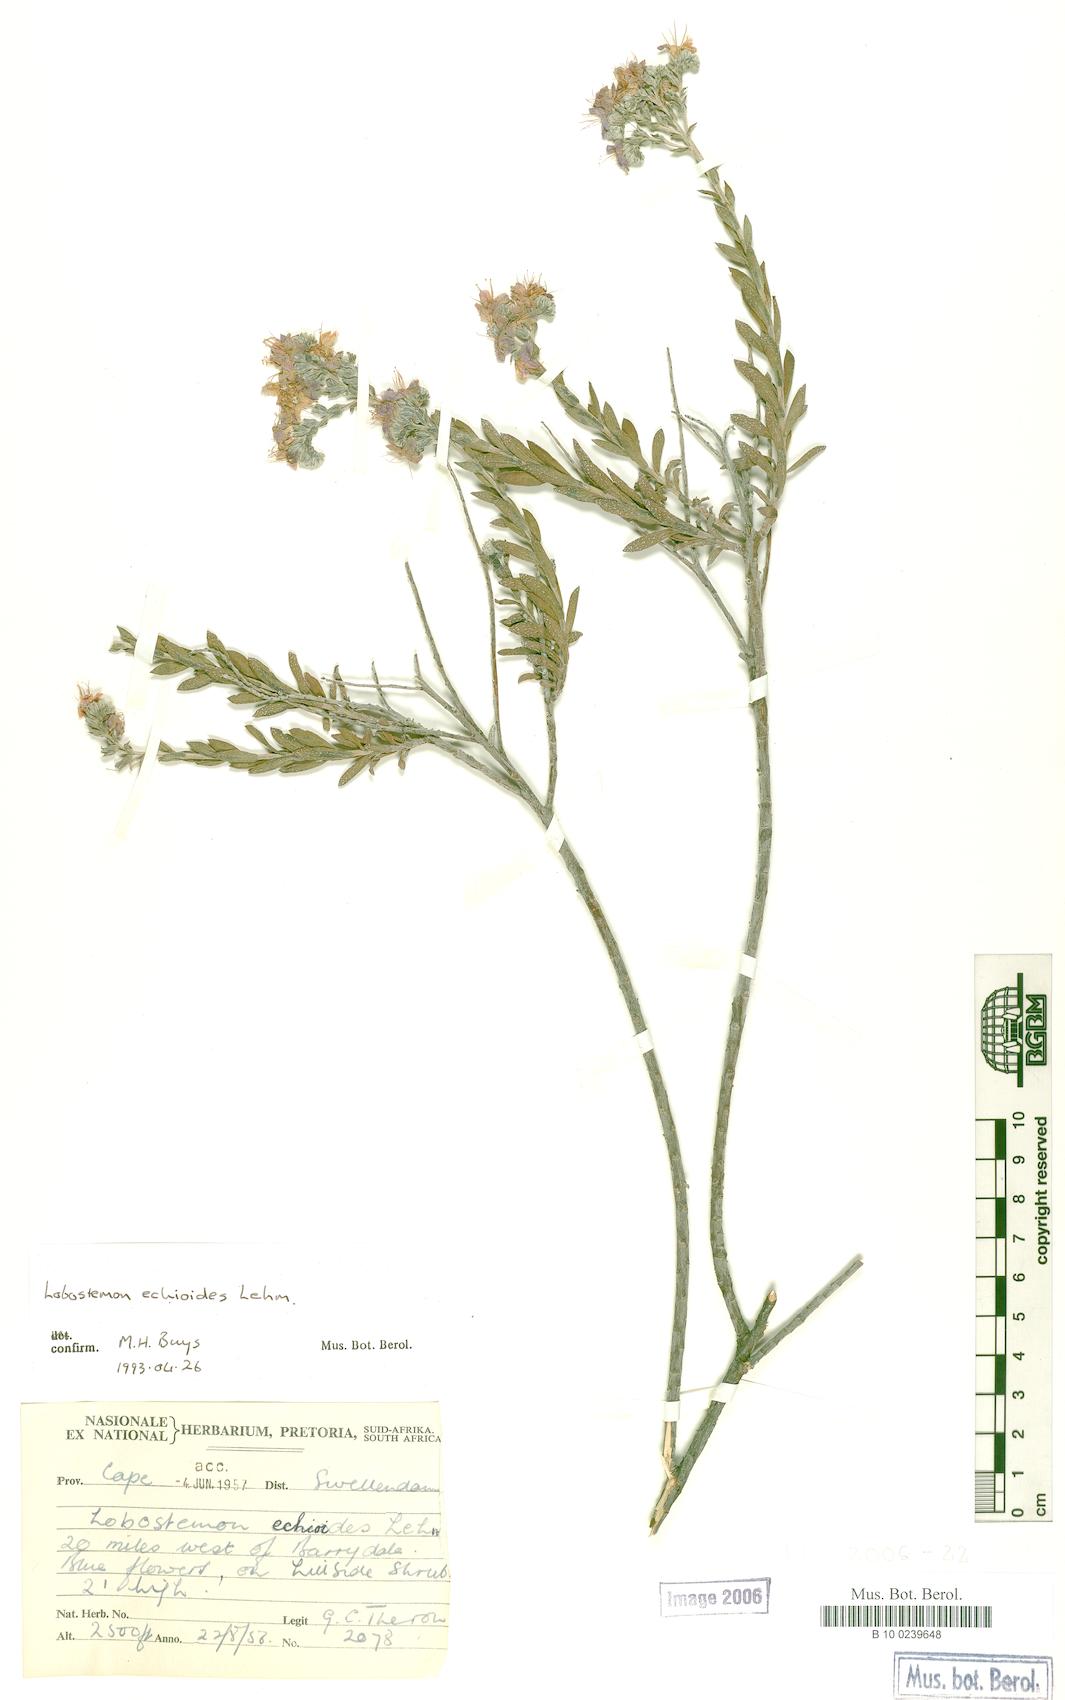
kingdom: Plantae
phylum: Tracheophyta
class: Magnoliopsida
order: Boraginales
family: Boraginaceae
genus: Lobostemon
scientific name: Lobostemon echioides
